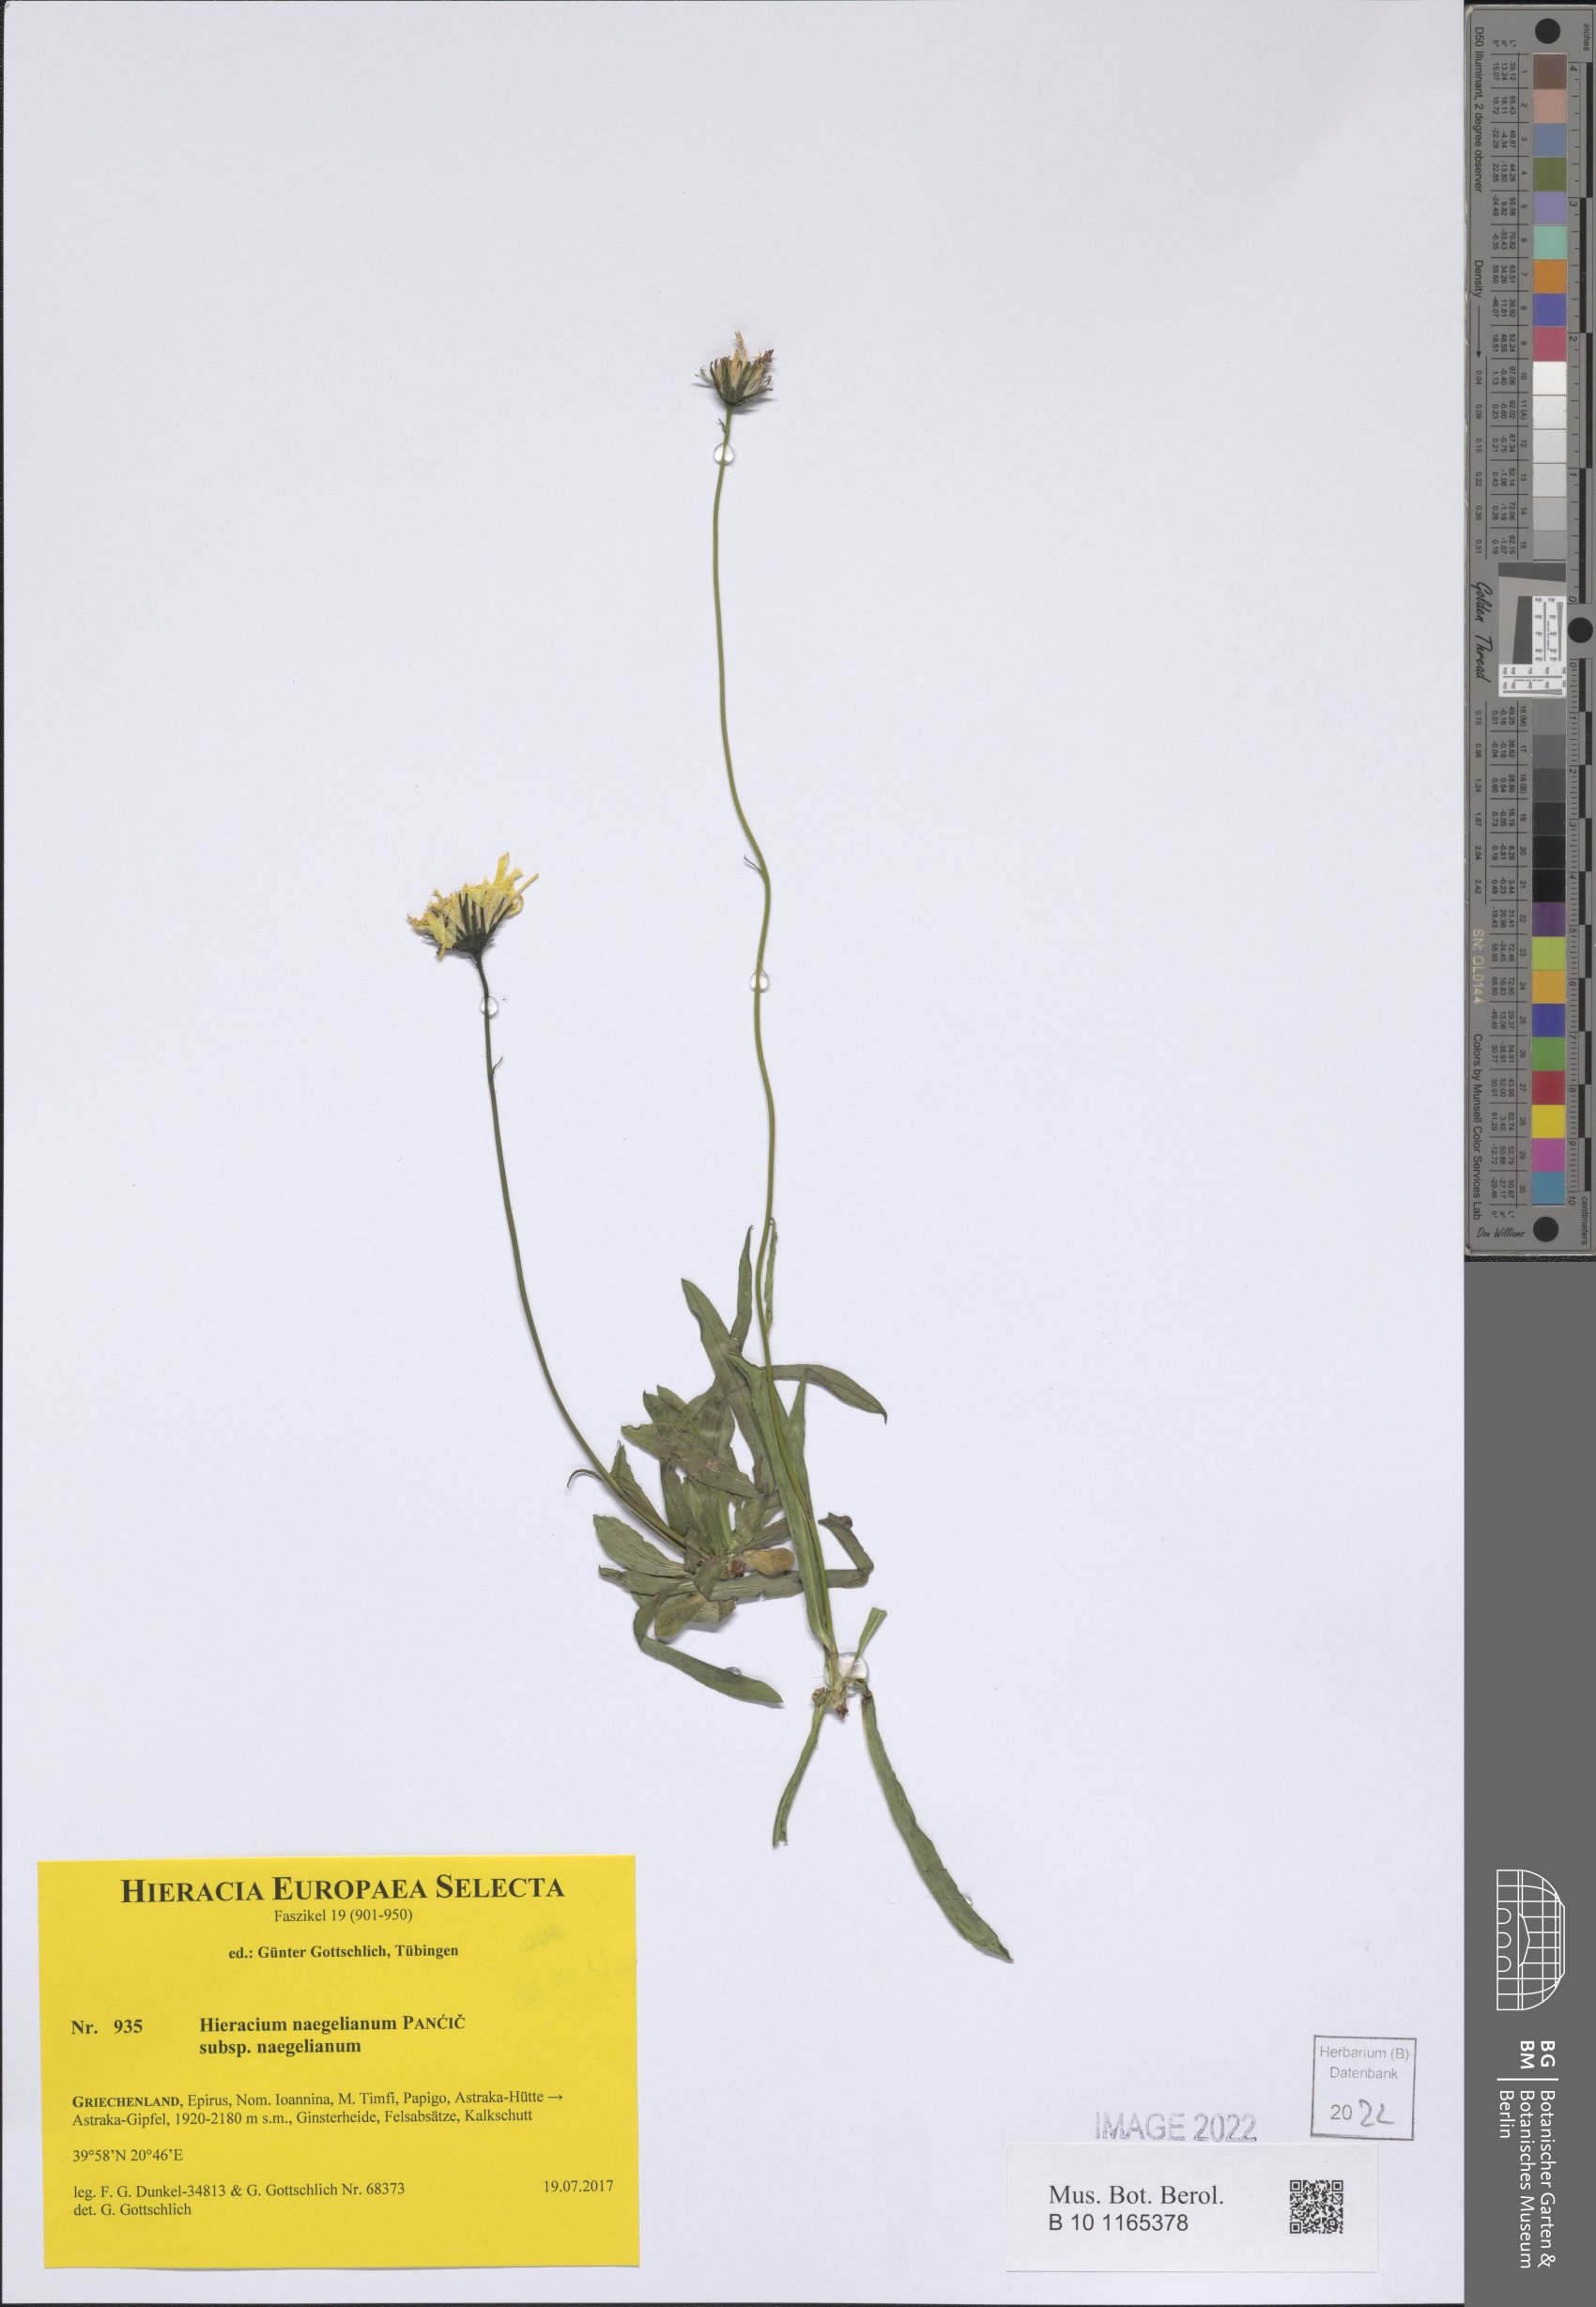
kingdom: Plantae
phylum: Tracheophyta
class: Magnoliopsida
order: Asterales
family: Asteraceae
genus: Hieracium
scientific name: Hieracium naegelianum
